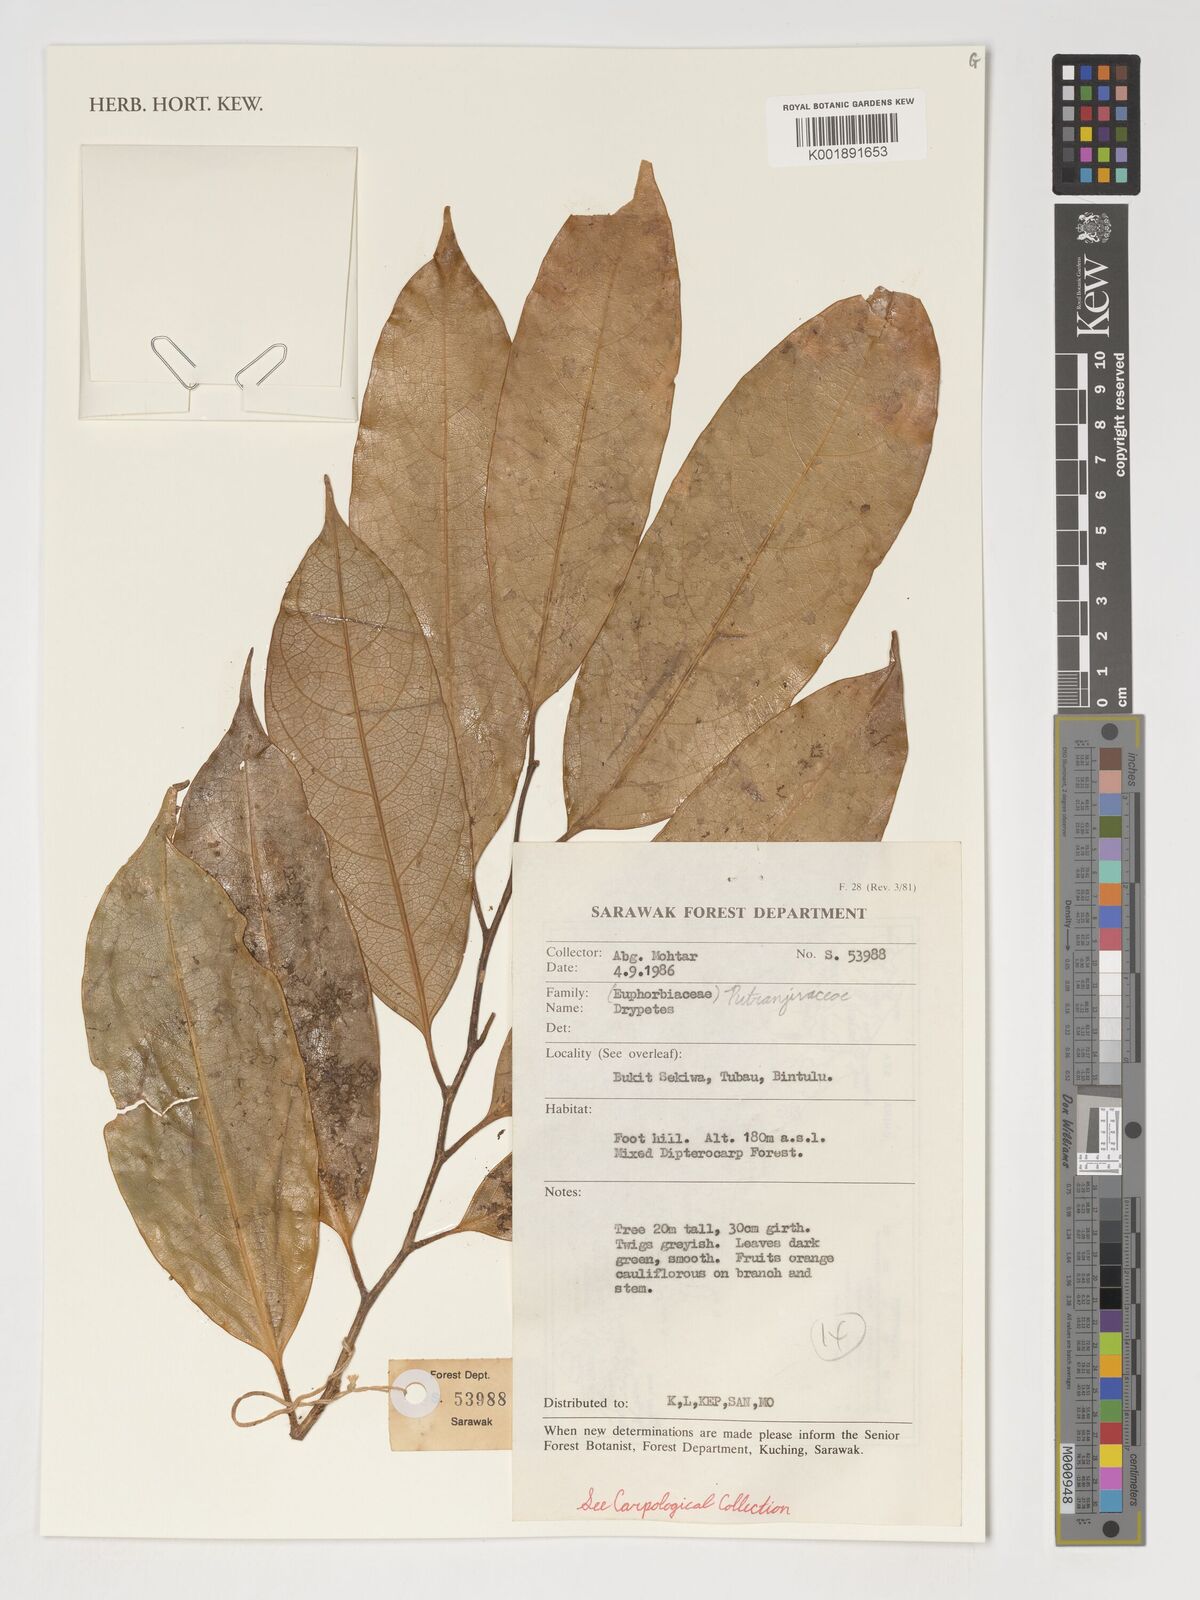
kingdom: Plantae
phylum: Tracheophyta
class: Magnoliopsida
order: Malpighiales
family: Putranjivaceae
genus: Drypetes
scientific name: Drypetes
